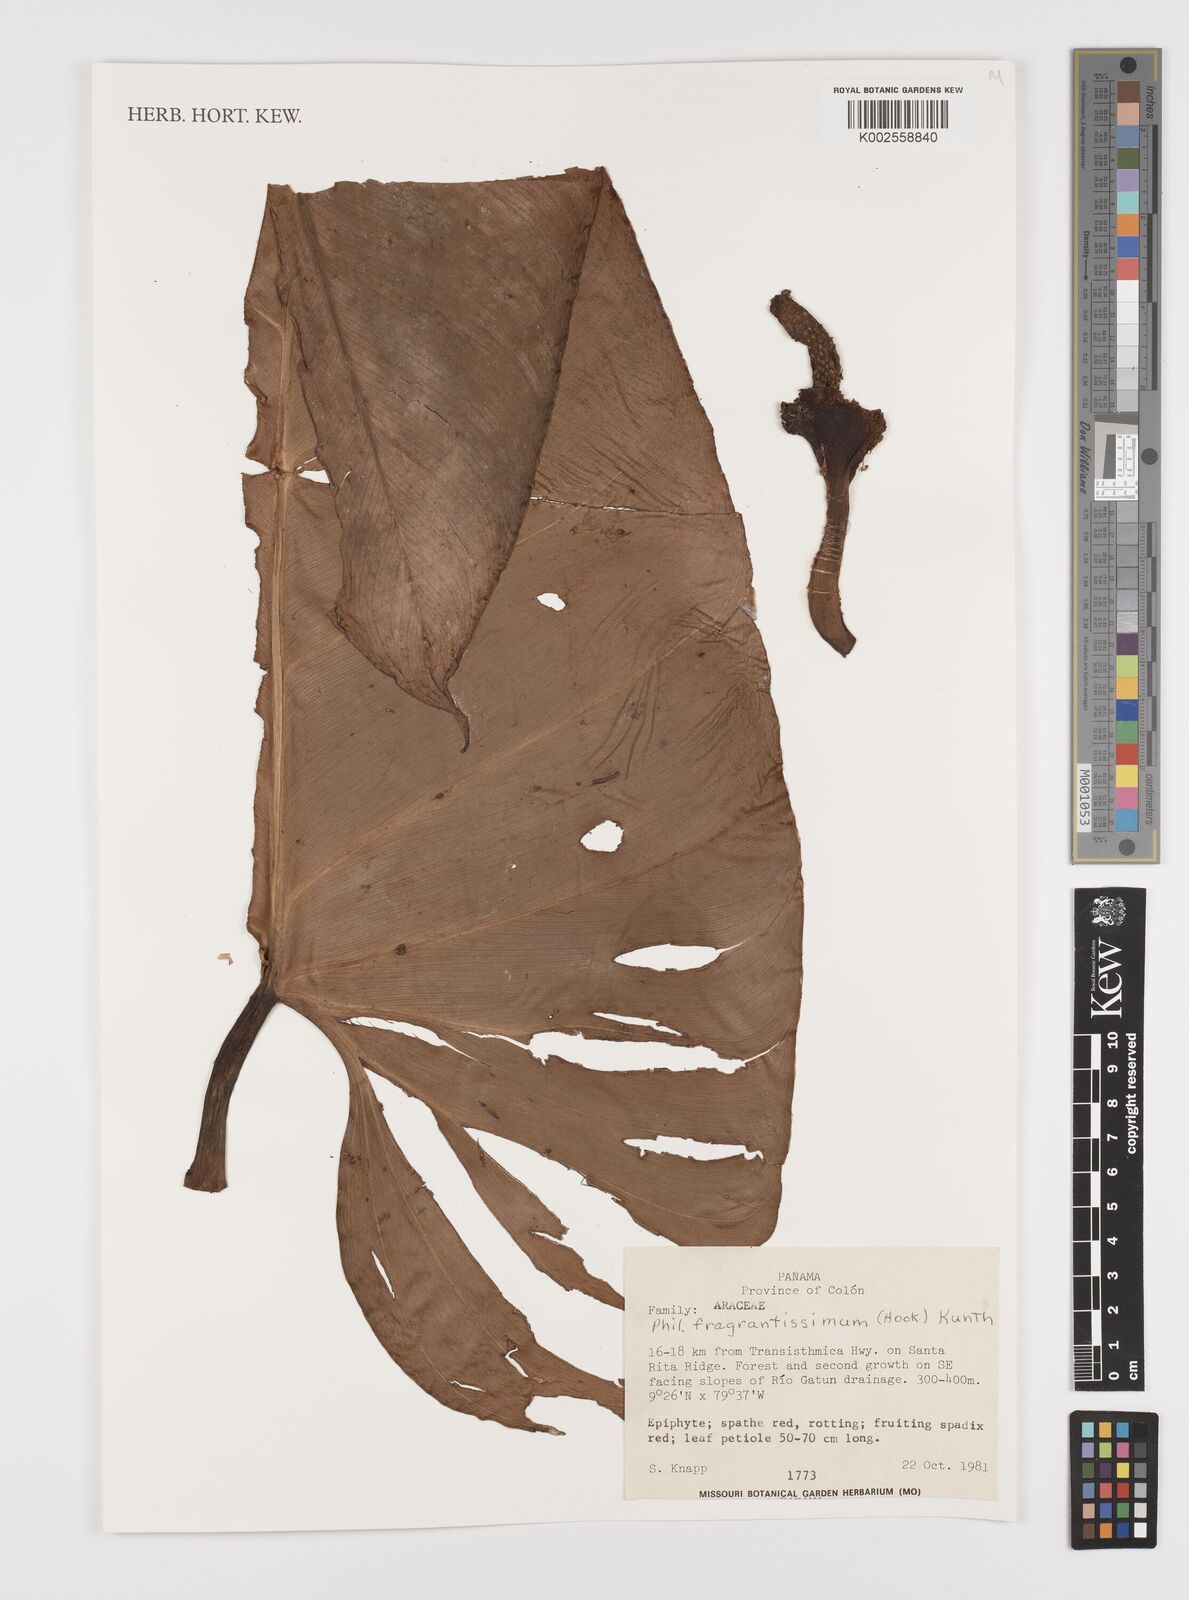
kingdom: Plantae
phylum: Tracheophyta
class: Liliopsida
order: Alismatales
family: Araceae
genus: Philodendron
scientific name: Philodendron fragrantissimum
